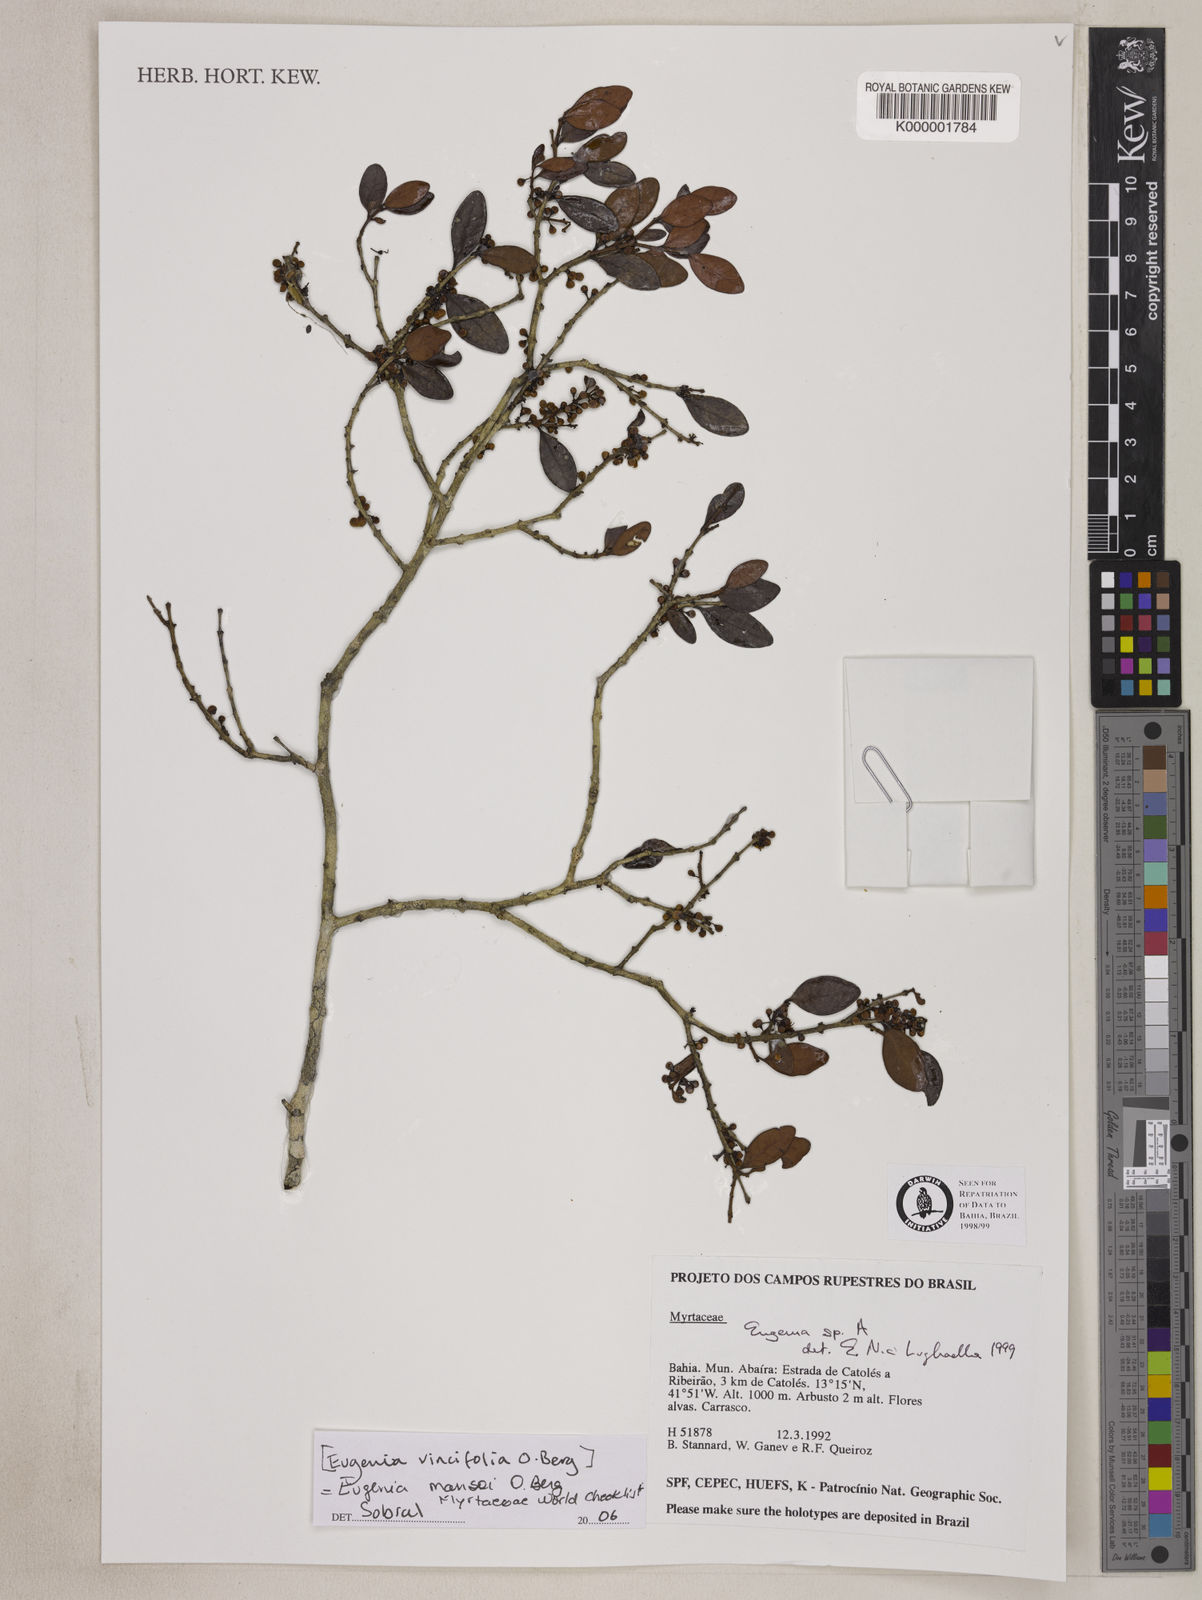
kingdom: Plantae
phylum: Tracheophyta
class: Magnoliopsida
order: Myrtales
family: Myrtaceae
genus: Eugenia
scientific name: Eugenia
